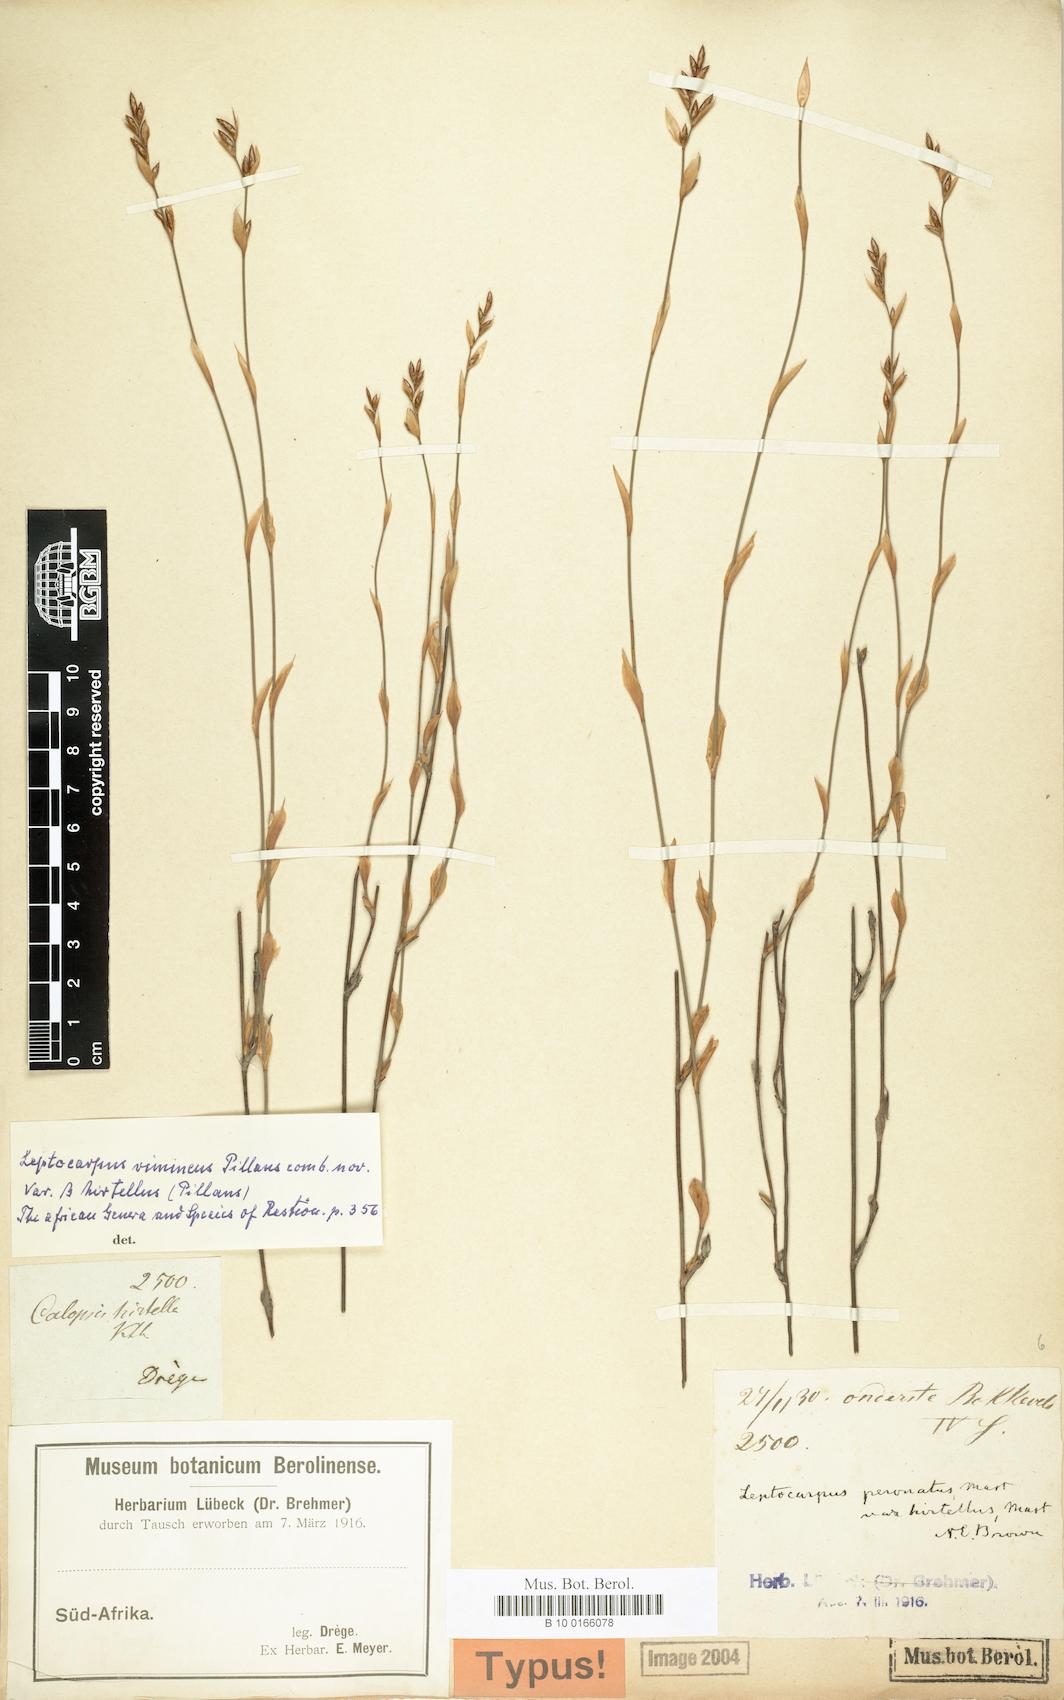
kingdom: Plantae
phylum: Tracheophyta
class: Liliopsida
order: Poales
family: Restionaceae
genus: Restio
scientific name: Restio vimineus
